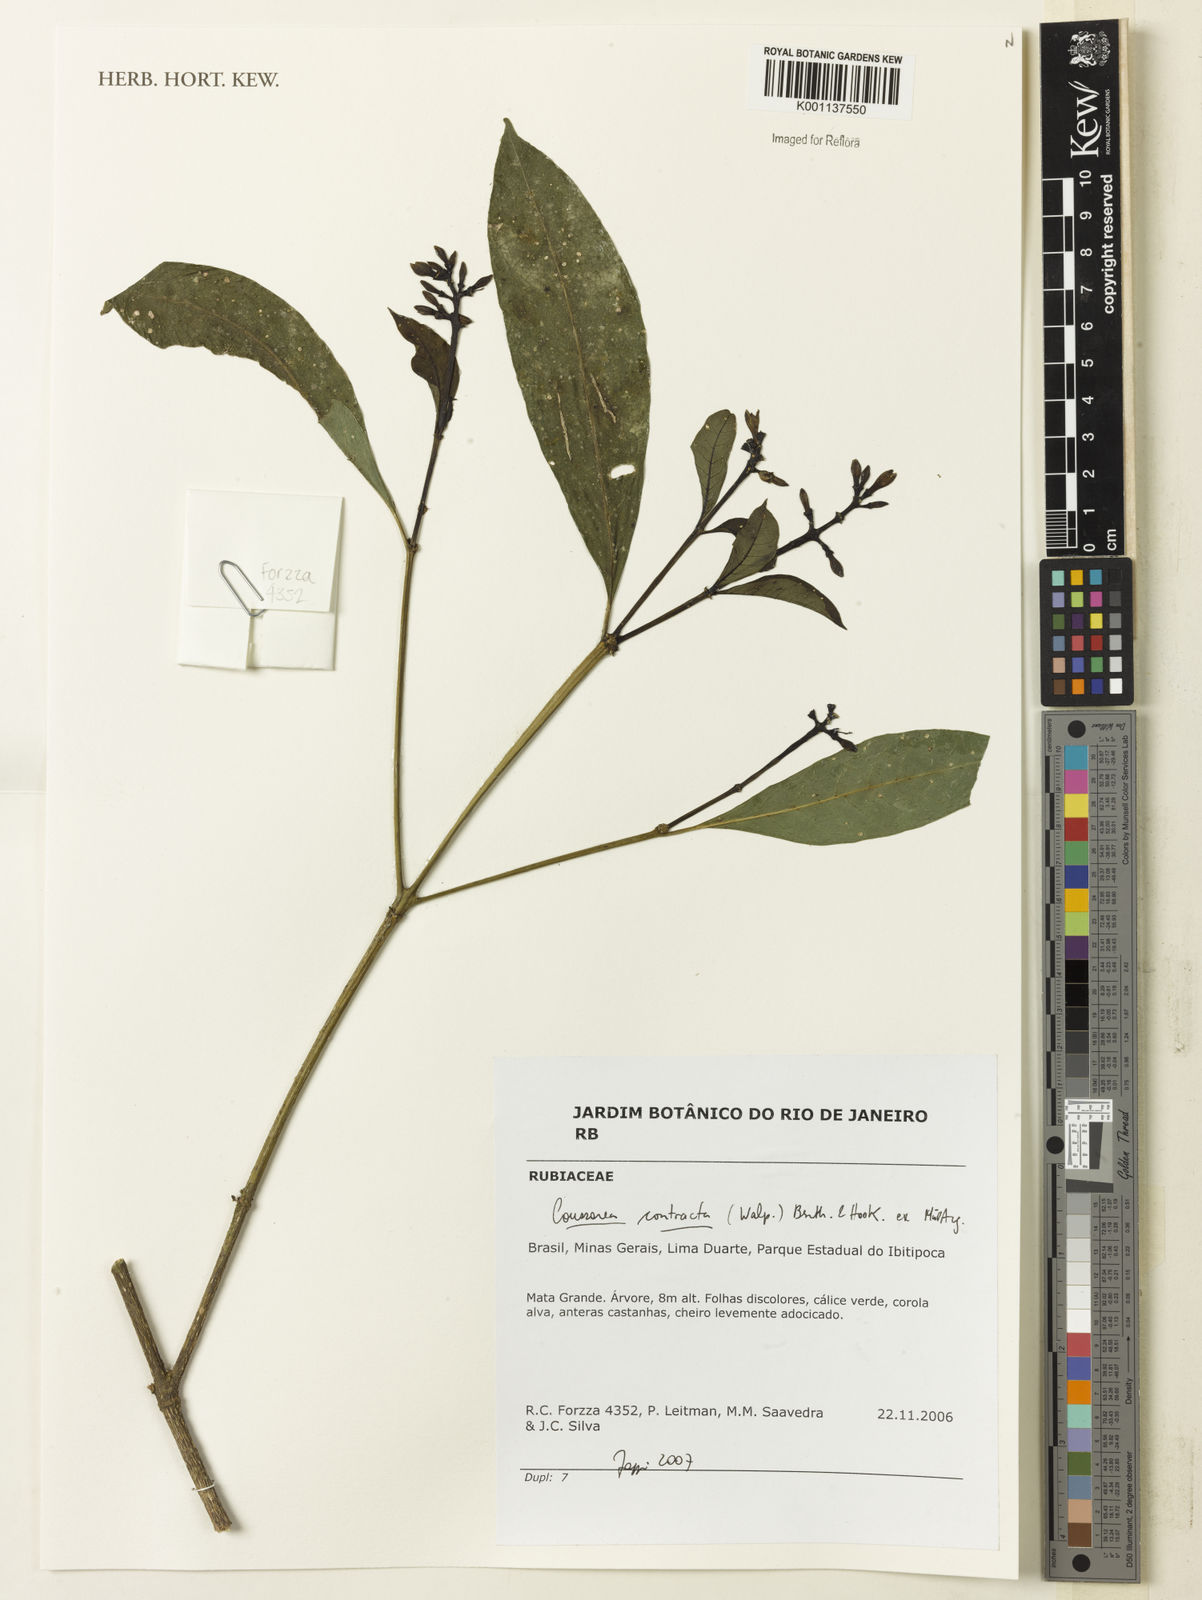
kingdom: Plantae
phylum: Tracheophyta
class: Magnoliopsida
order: Gentianales
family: Rubiaceae
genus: Coussarea
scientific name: Coussarea
